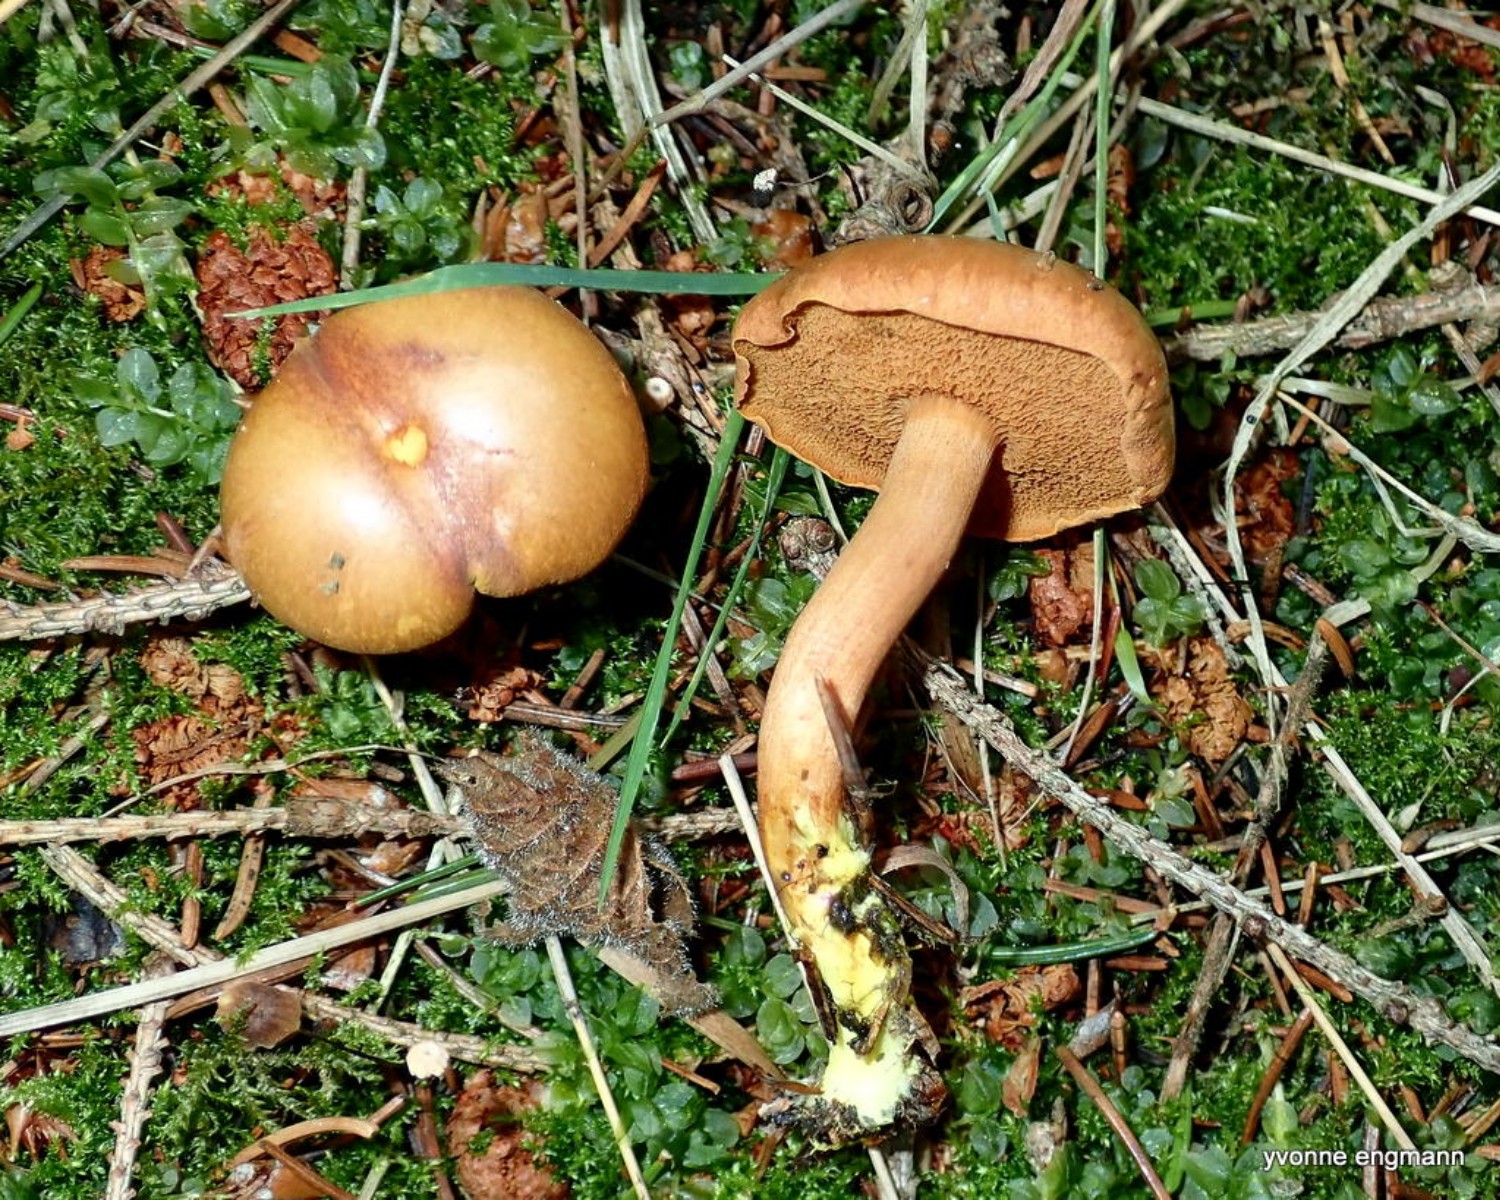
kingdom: Fungi
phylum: Basidiomycota
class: Agaricomycetes
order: Boletales
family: Boletaceae
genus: Chalciporus
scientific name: Chalciporus piperatus
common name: peberrørhat
